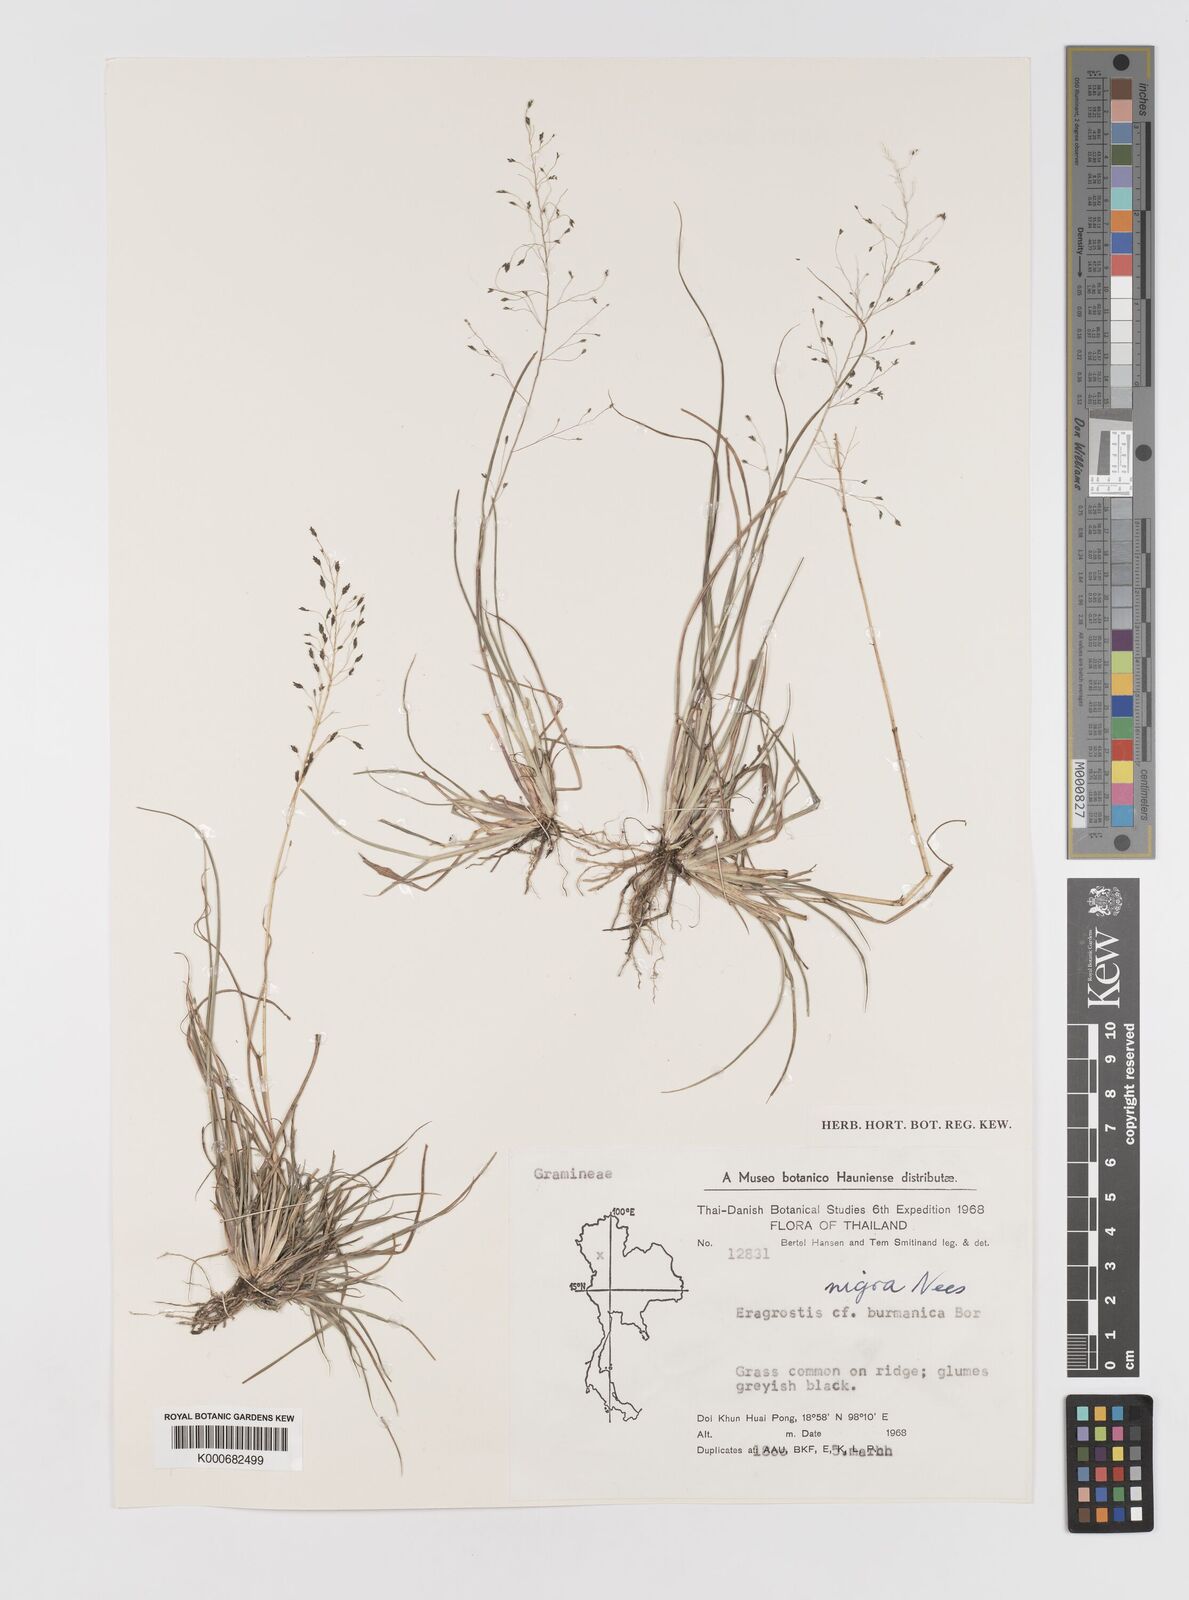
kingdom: Plantae
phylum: Tracheophyta
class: Liliopsida
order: Poales
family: Poaceae
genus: Eragrostis
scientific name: Eragrostis nigra
